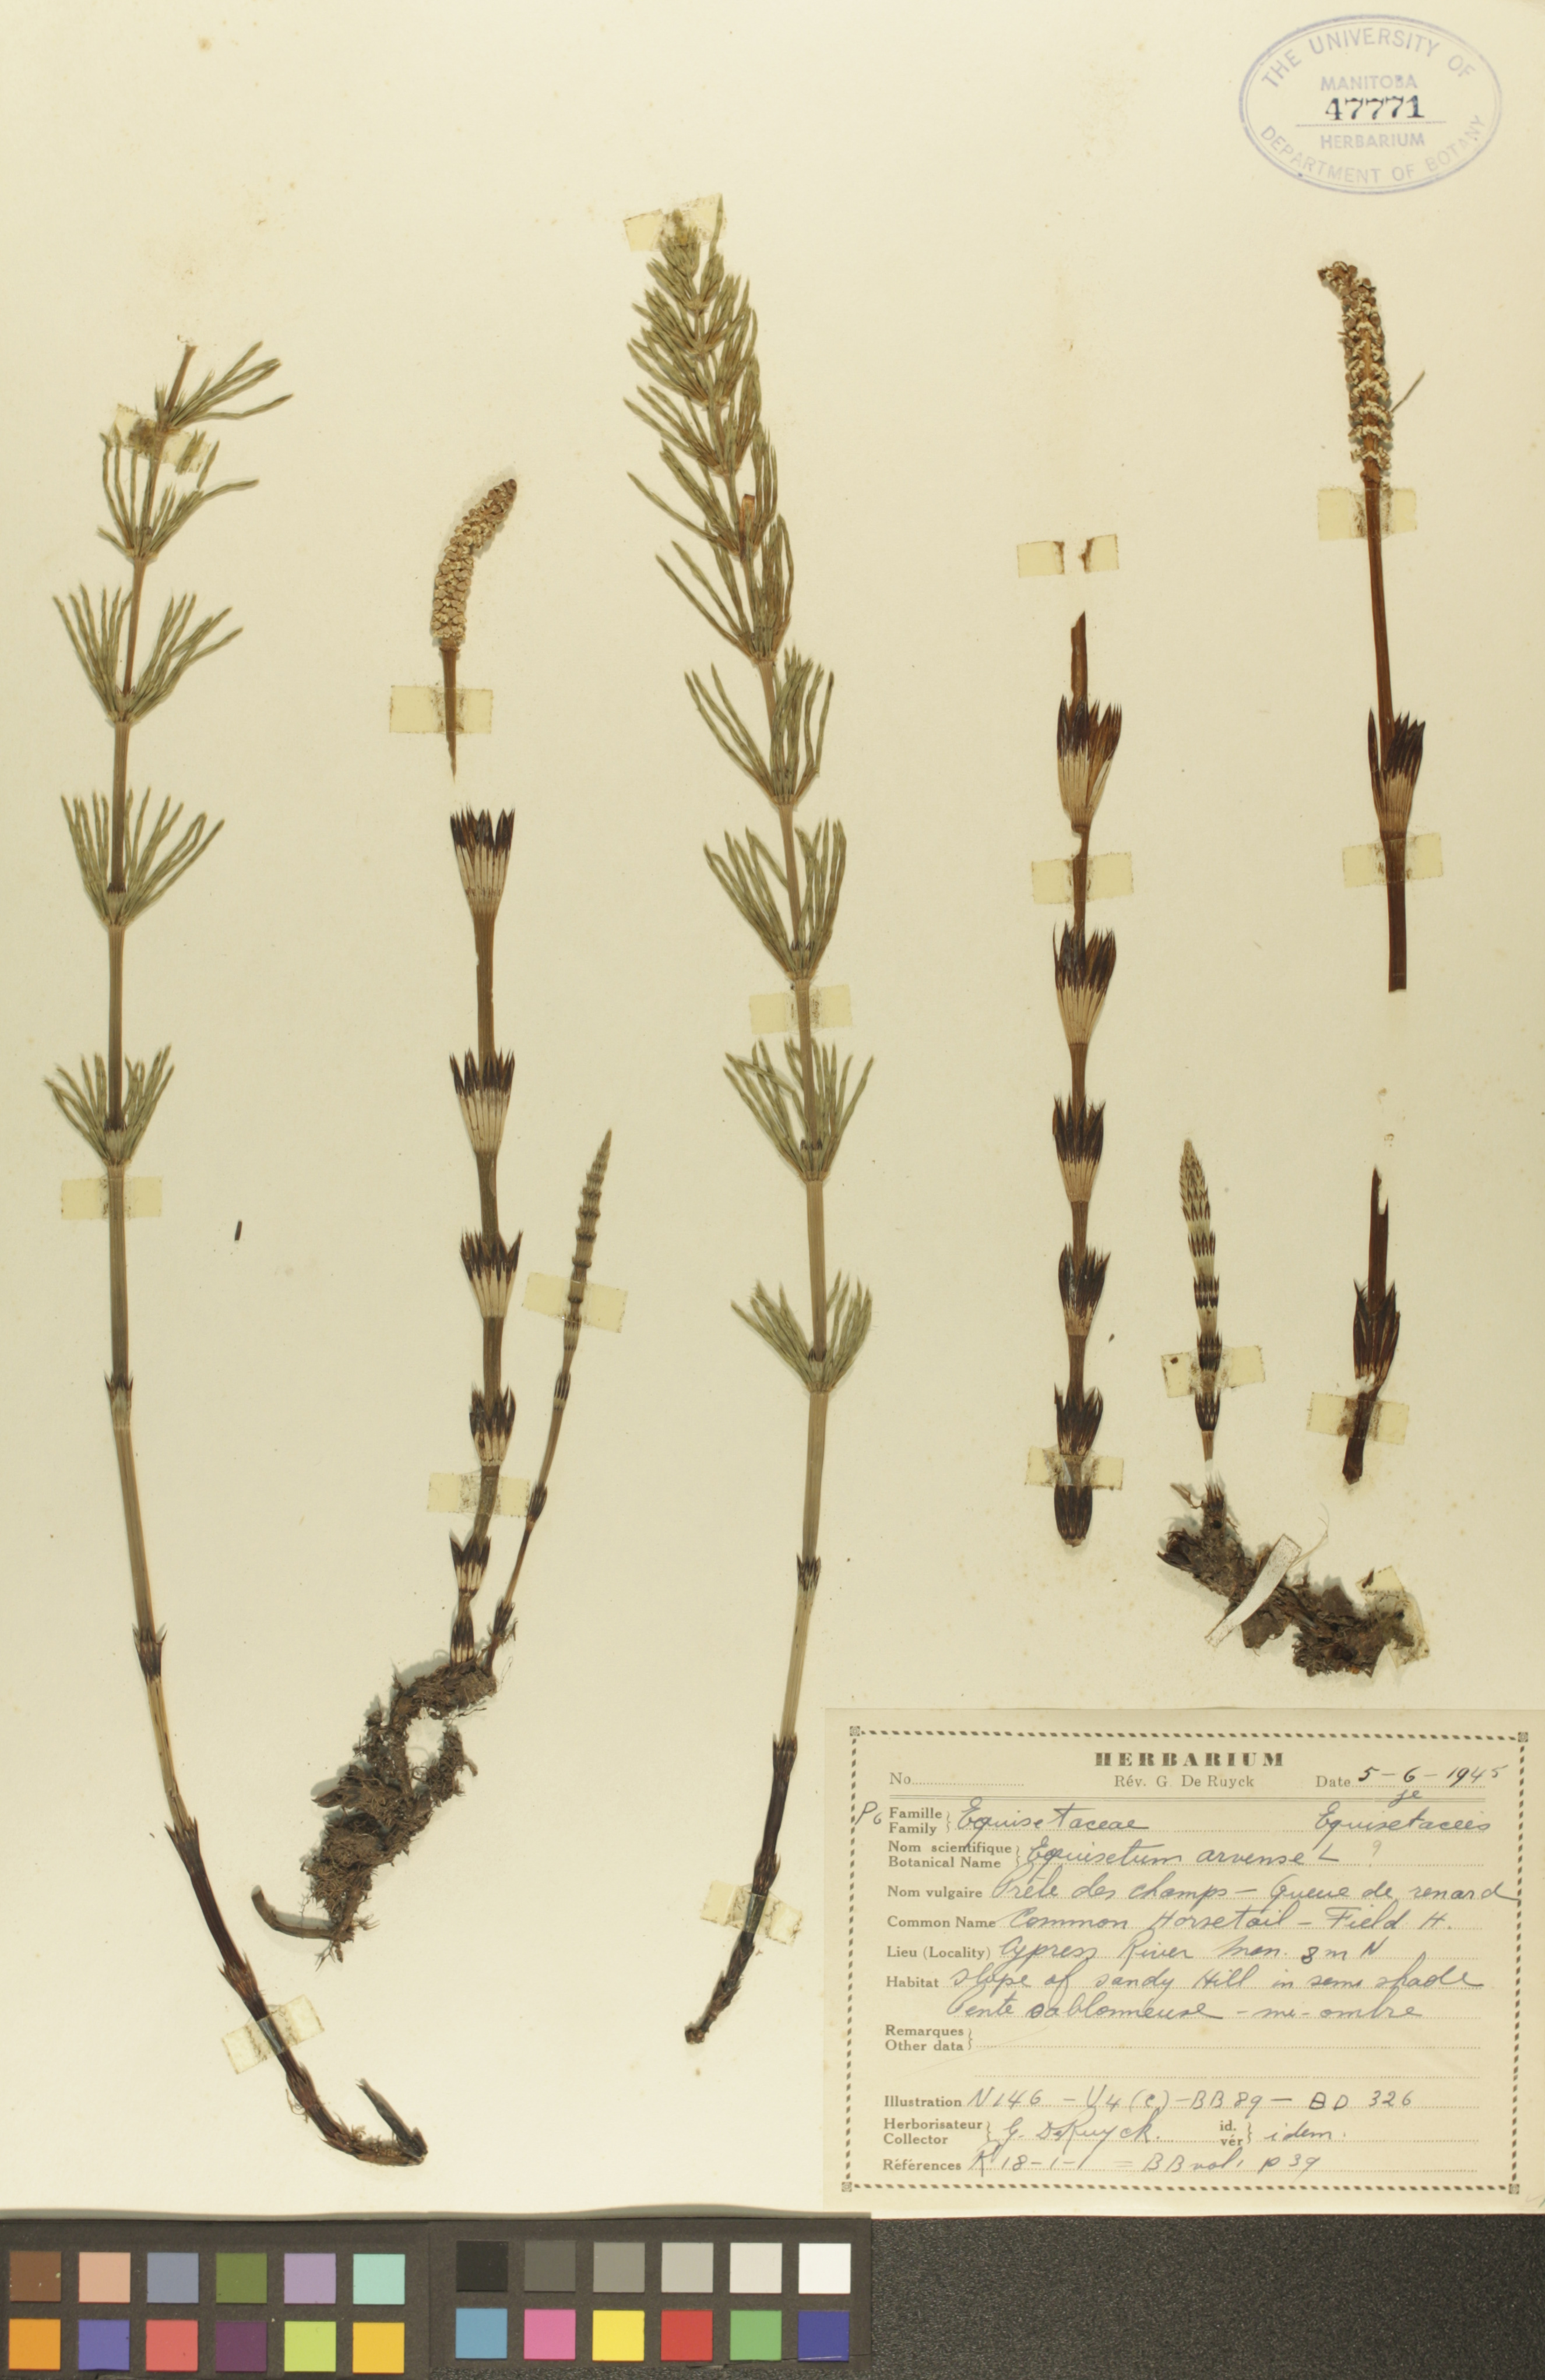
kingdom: Plantae
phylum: Tracheophyta
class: Polypodiopsida
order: Equisetales
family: Equisetaceae
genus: Equisetum
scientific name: Equisetum arvense
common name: Field horsetail
